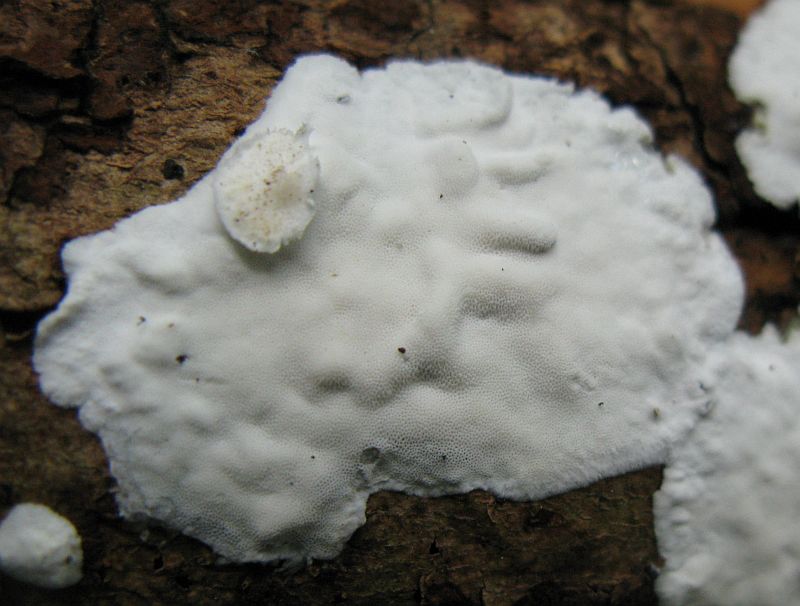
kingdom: Fungi
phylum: Basidiomycota
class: Agaricomycetes
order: Polyporales
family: Incrustoporiaceae
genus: Skeletocutis
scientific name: Skeletocutis nemoralis
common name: stor krystalporesvamp
